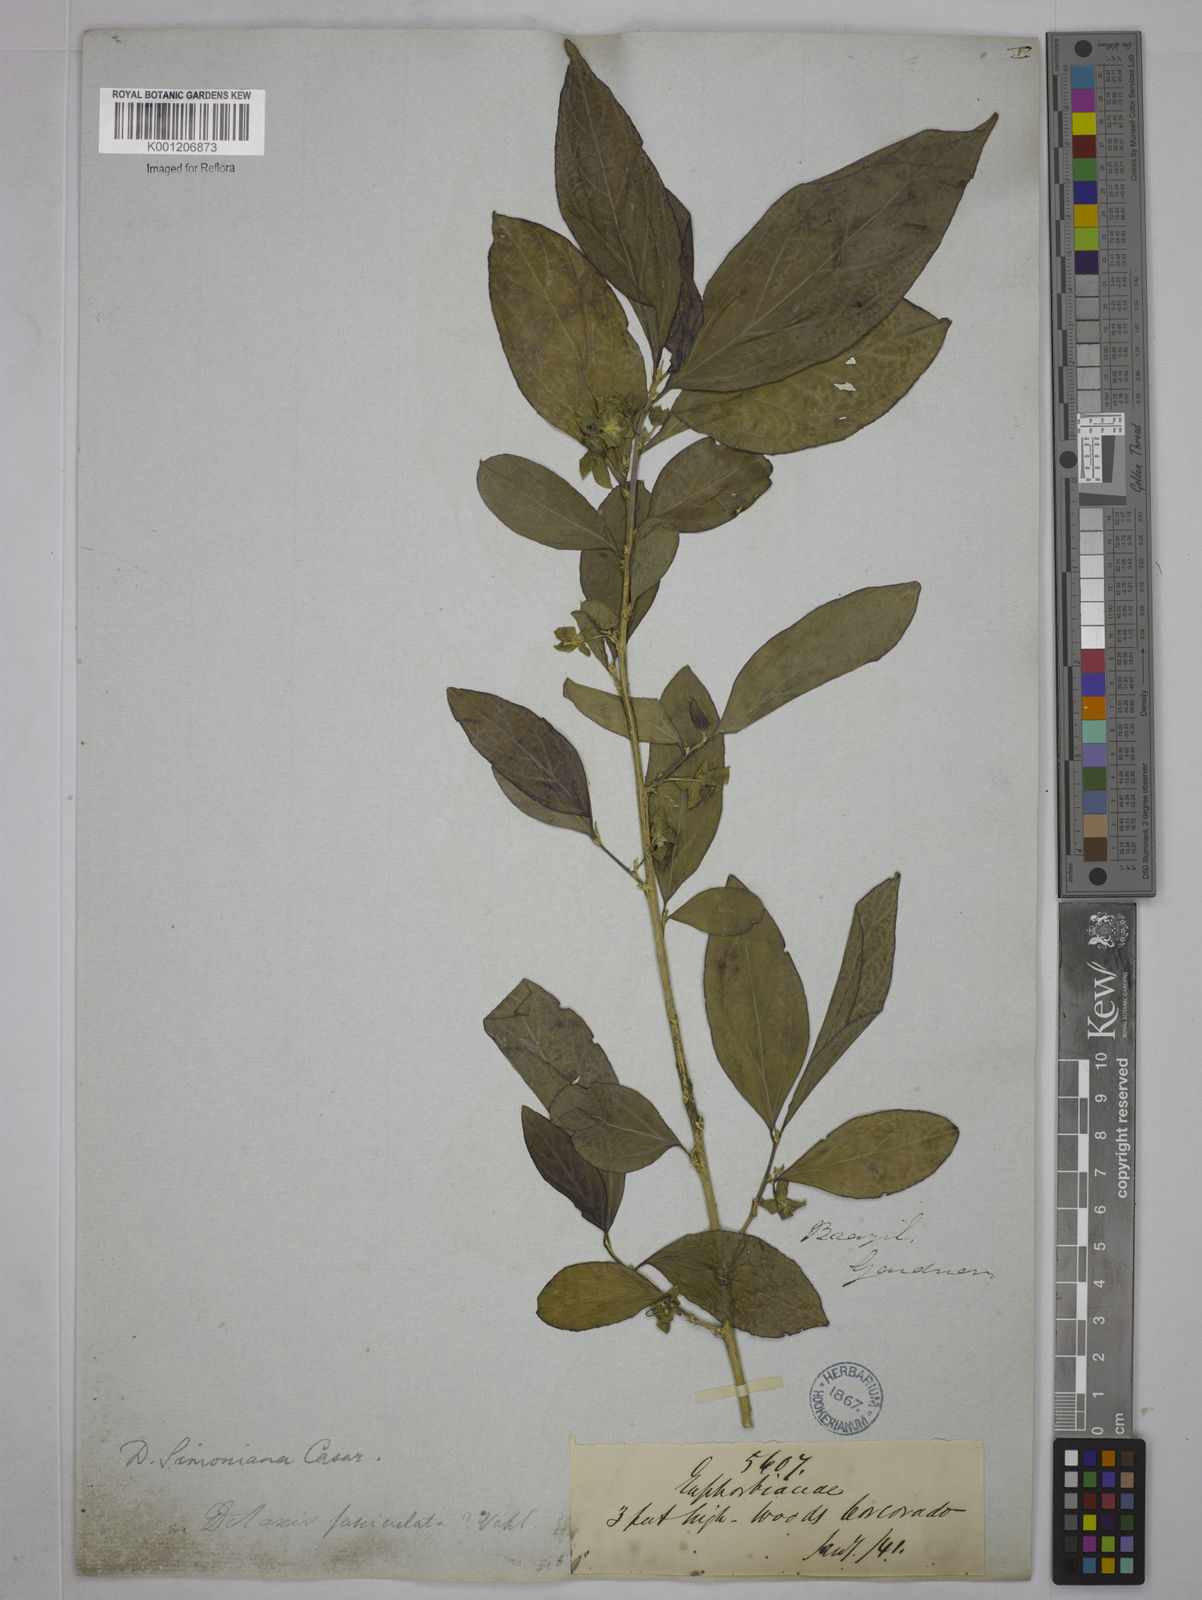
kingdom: Plantae
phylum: Tracheophyta
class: Magnoliopsida
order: Malpighiales
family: Euphorbiaceae
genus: Ditaxis
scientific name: Ditaxis simoniana
